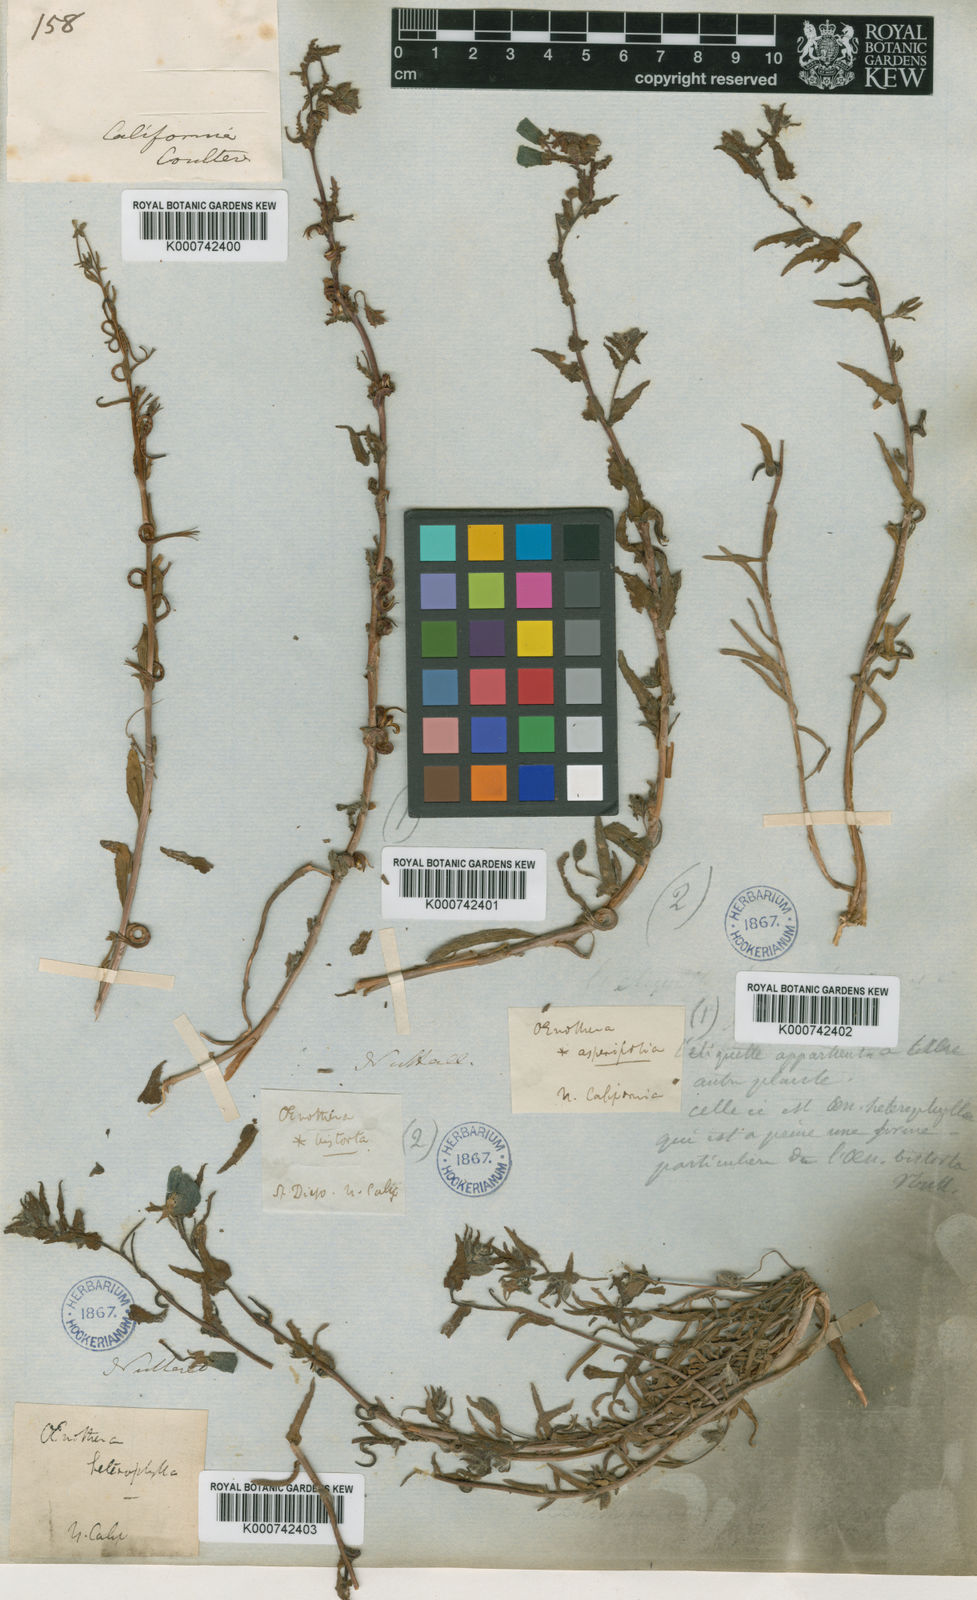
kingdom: Plantae
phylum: Tracheophyta
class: Magnoliopsida
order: Myrtales
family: Onagraceae
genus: Camissoniopsis
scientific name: Camissoniopsis bistorta
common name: Southern suncup
